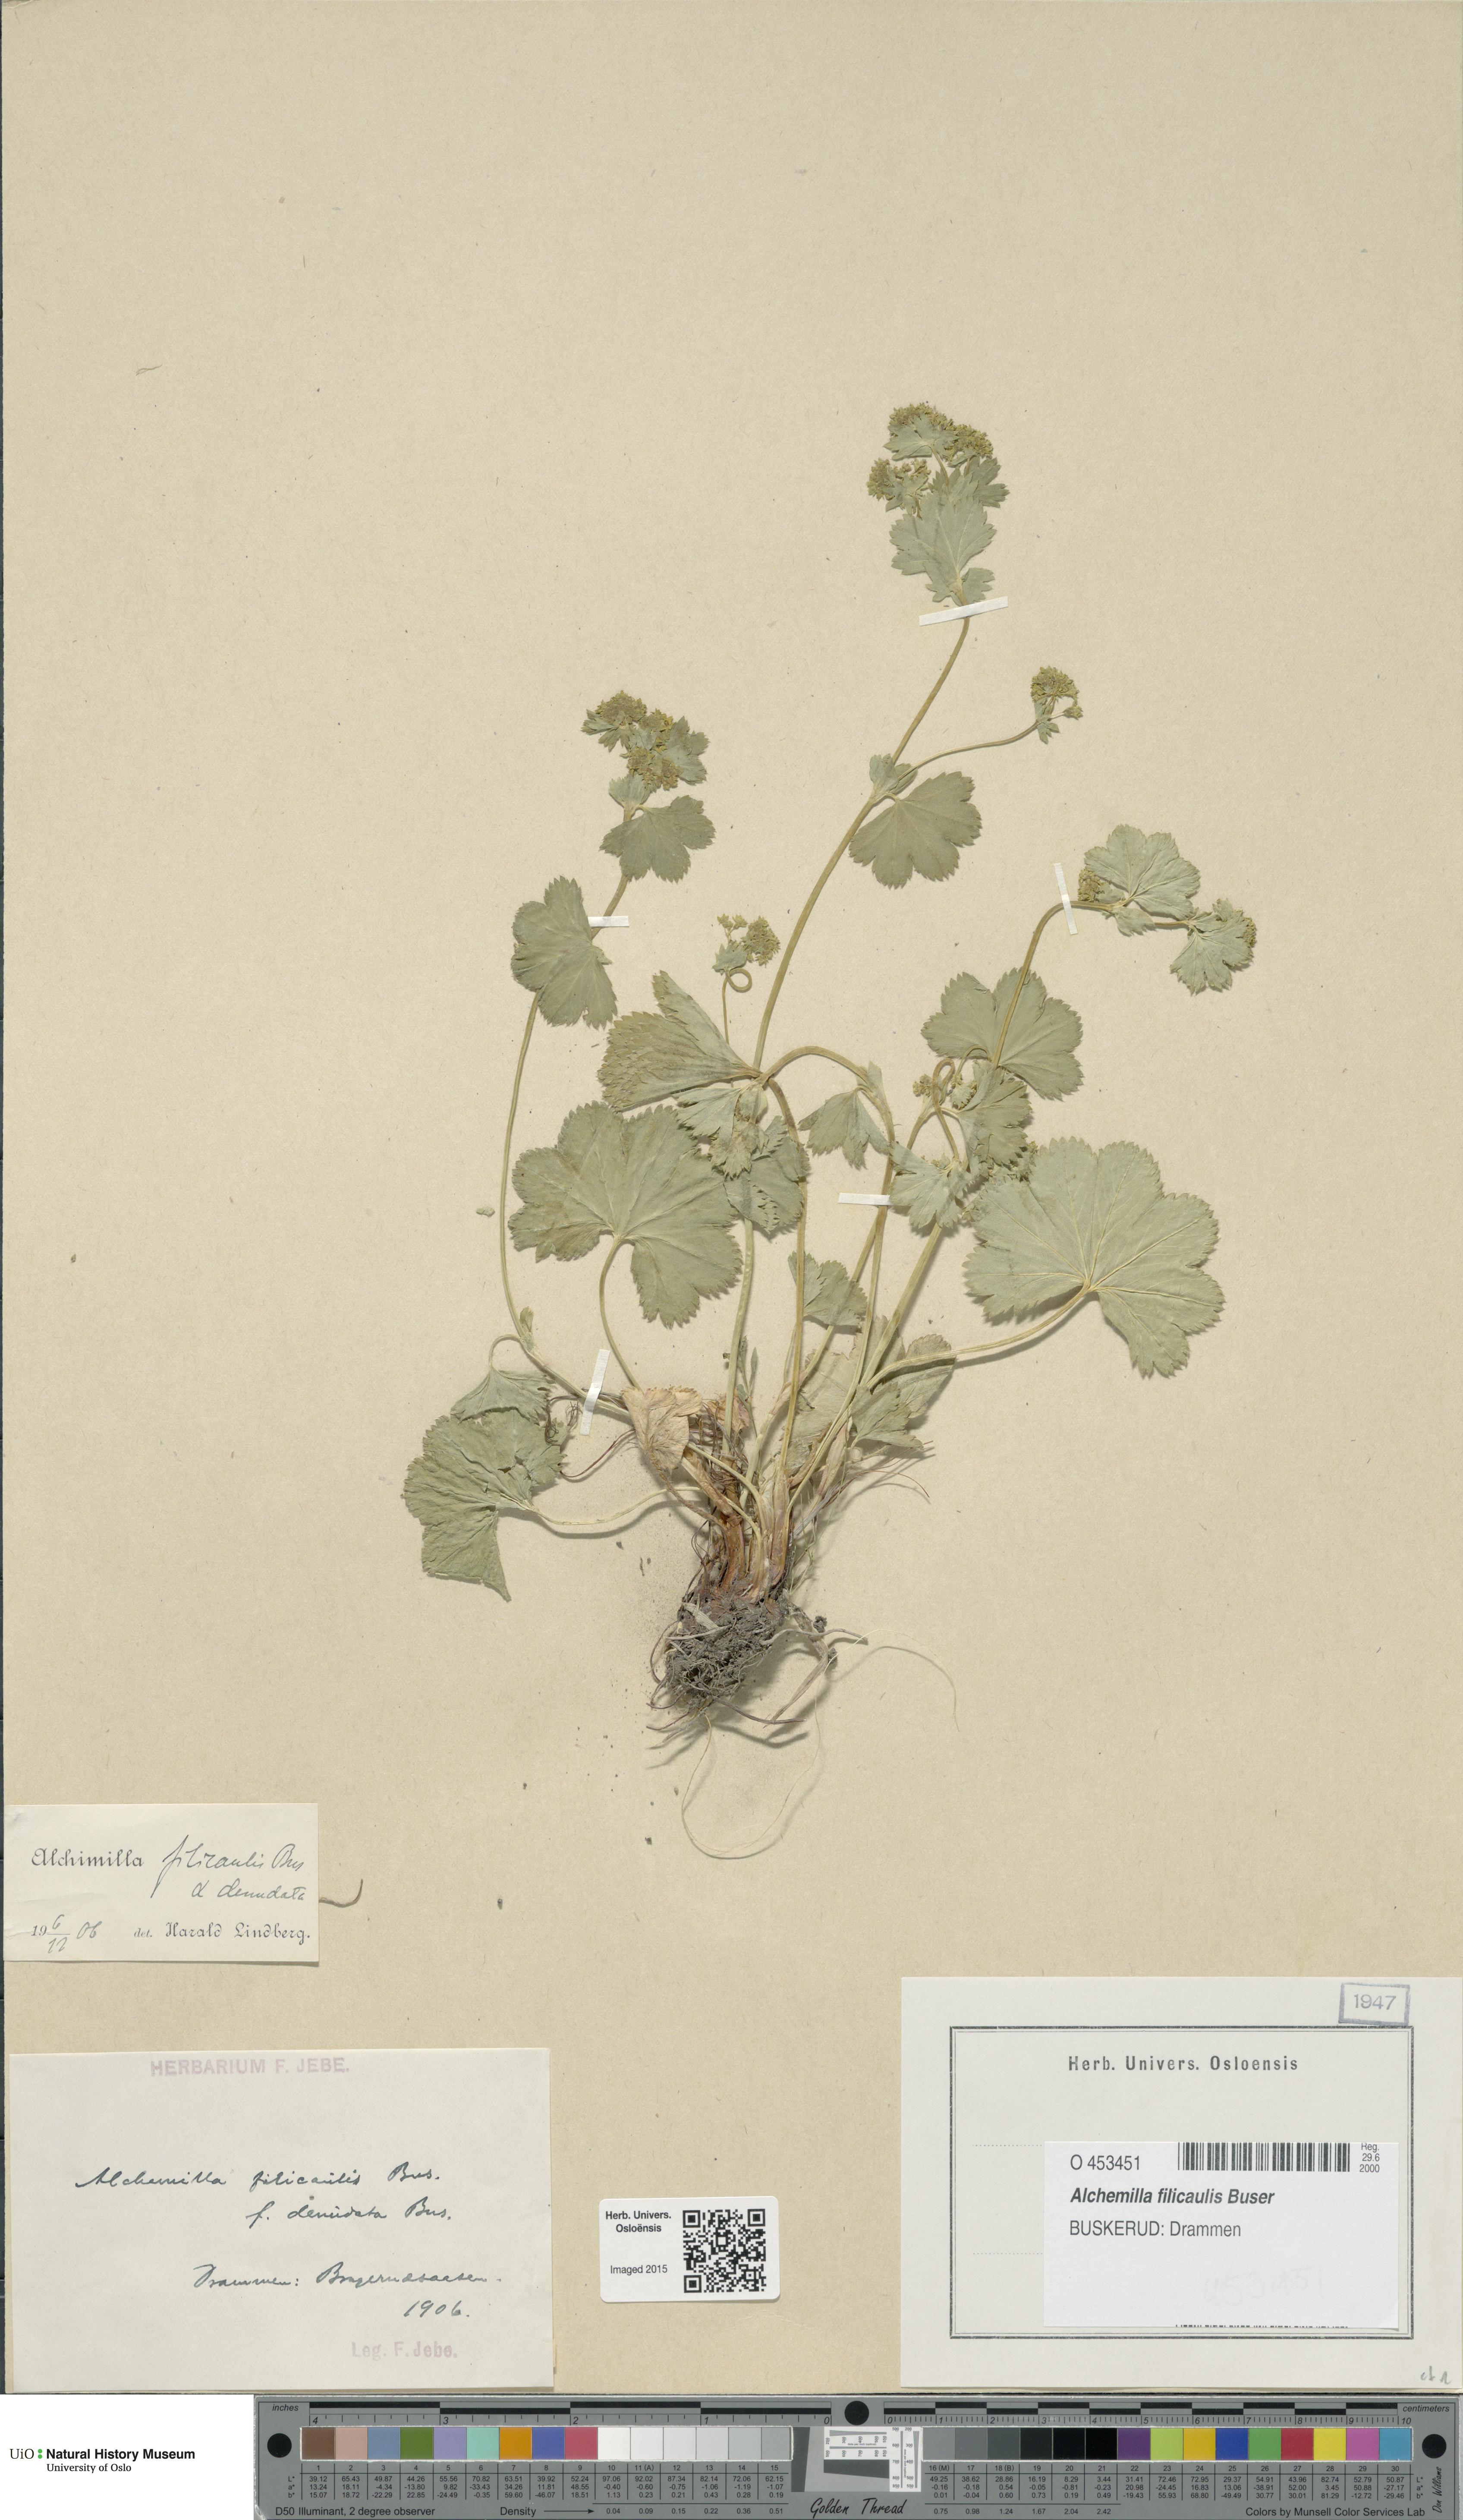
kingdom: Plantae
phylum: Tracheophyta
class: Magnoliopsida
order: Rosales
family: Rosaceae
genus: Alchemilla
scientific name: Alchemilla filicaulis
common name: Hairy lady's-mantle
